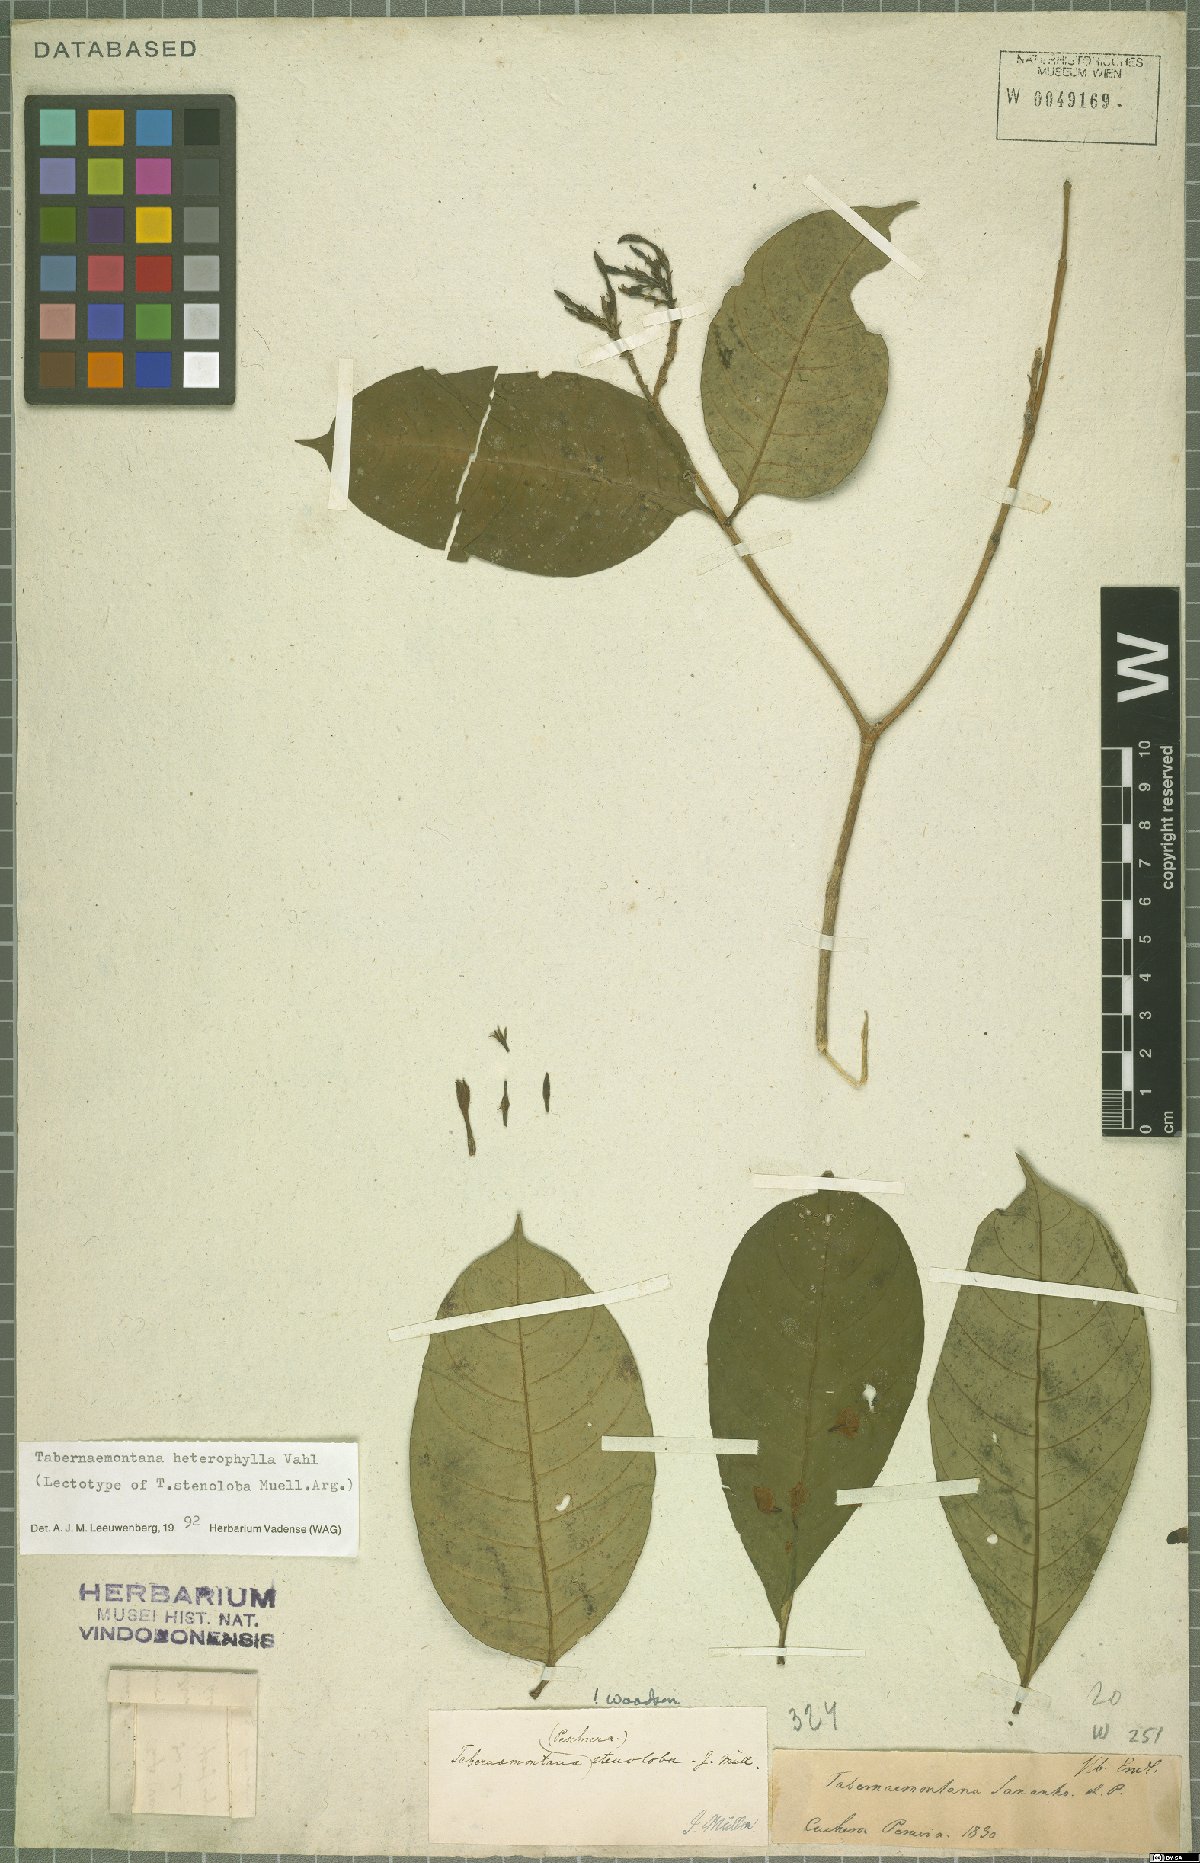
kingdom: Plantae
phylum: Tracheophyta
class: Magnoliopsida
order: Gentianales
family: Apocynaceae
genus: Tabernaemontana
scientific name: Tabernaemontana heterophylla
